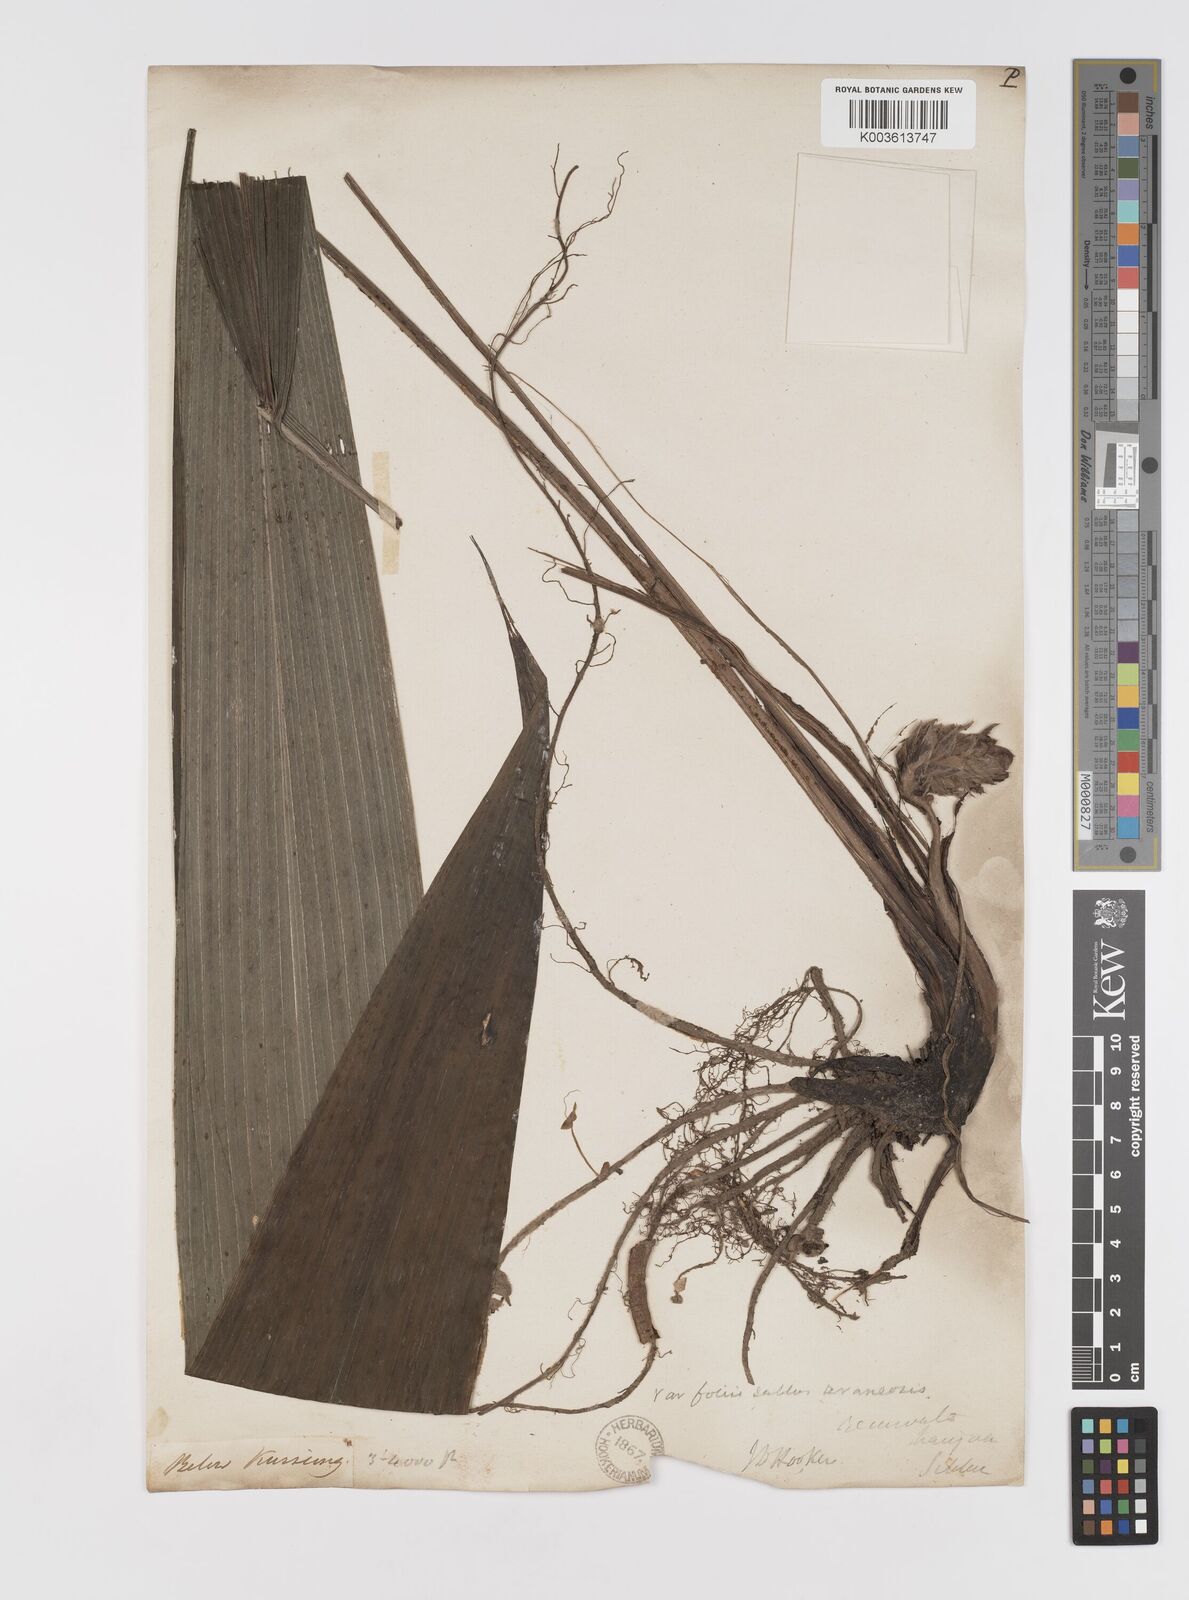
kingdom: Plantae
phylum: Tracheophyta
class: Liliopsida
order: Asparagales
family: Hypoxidaceae
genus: Curculigo
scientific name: Curculigo capitulata
